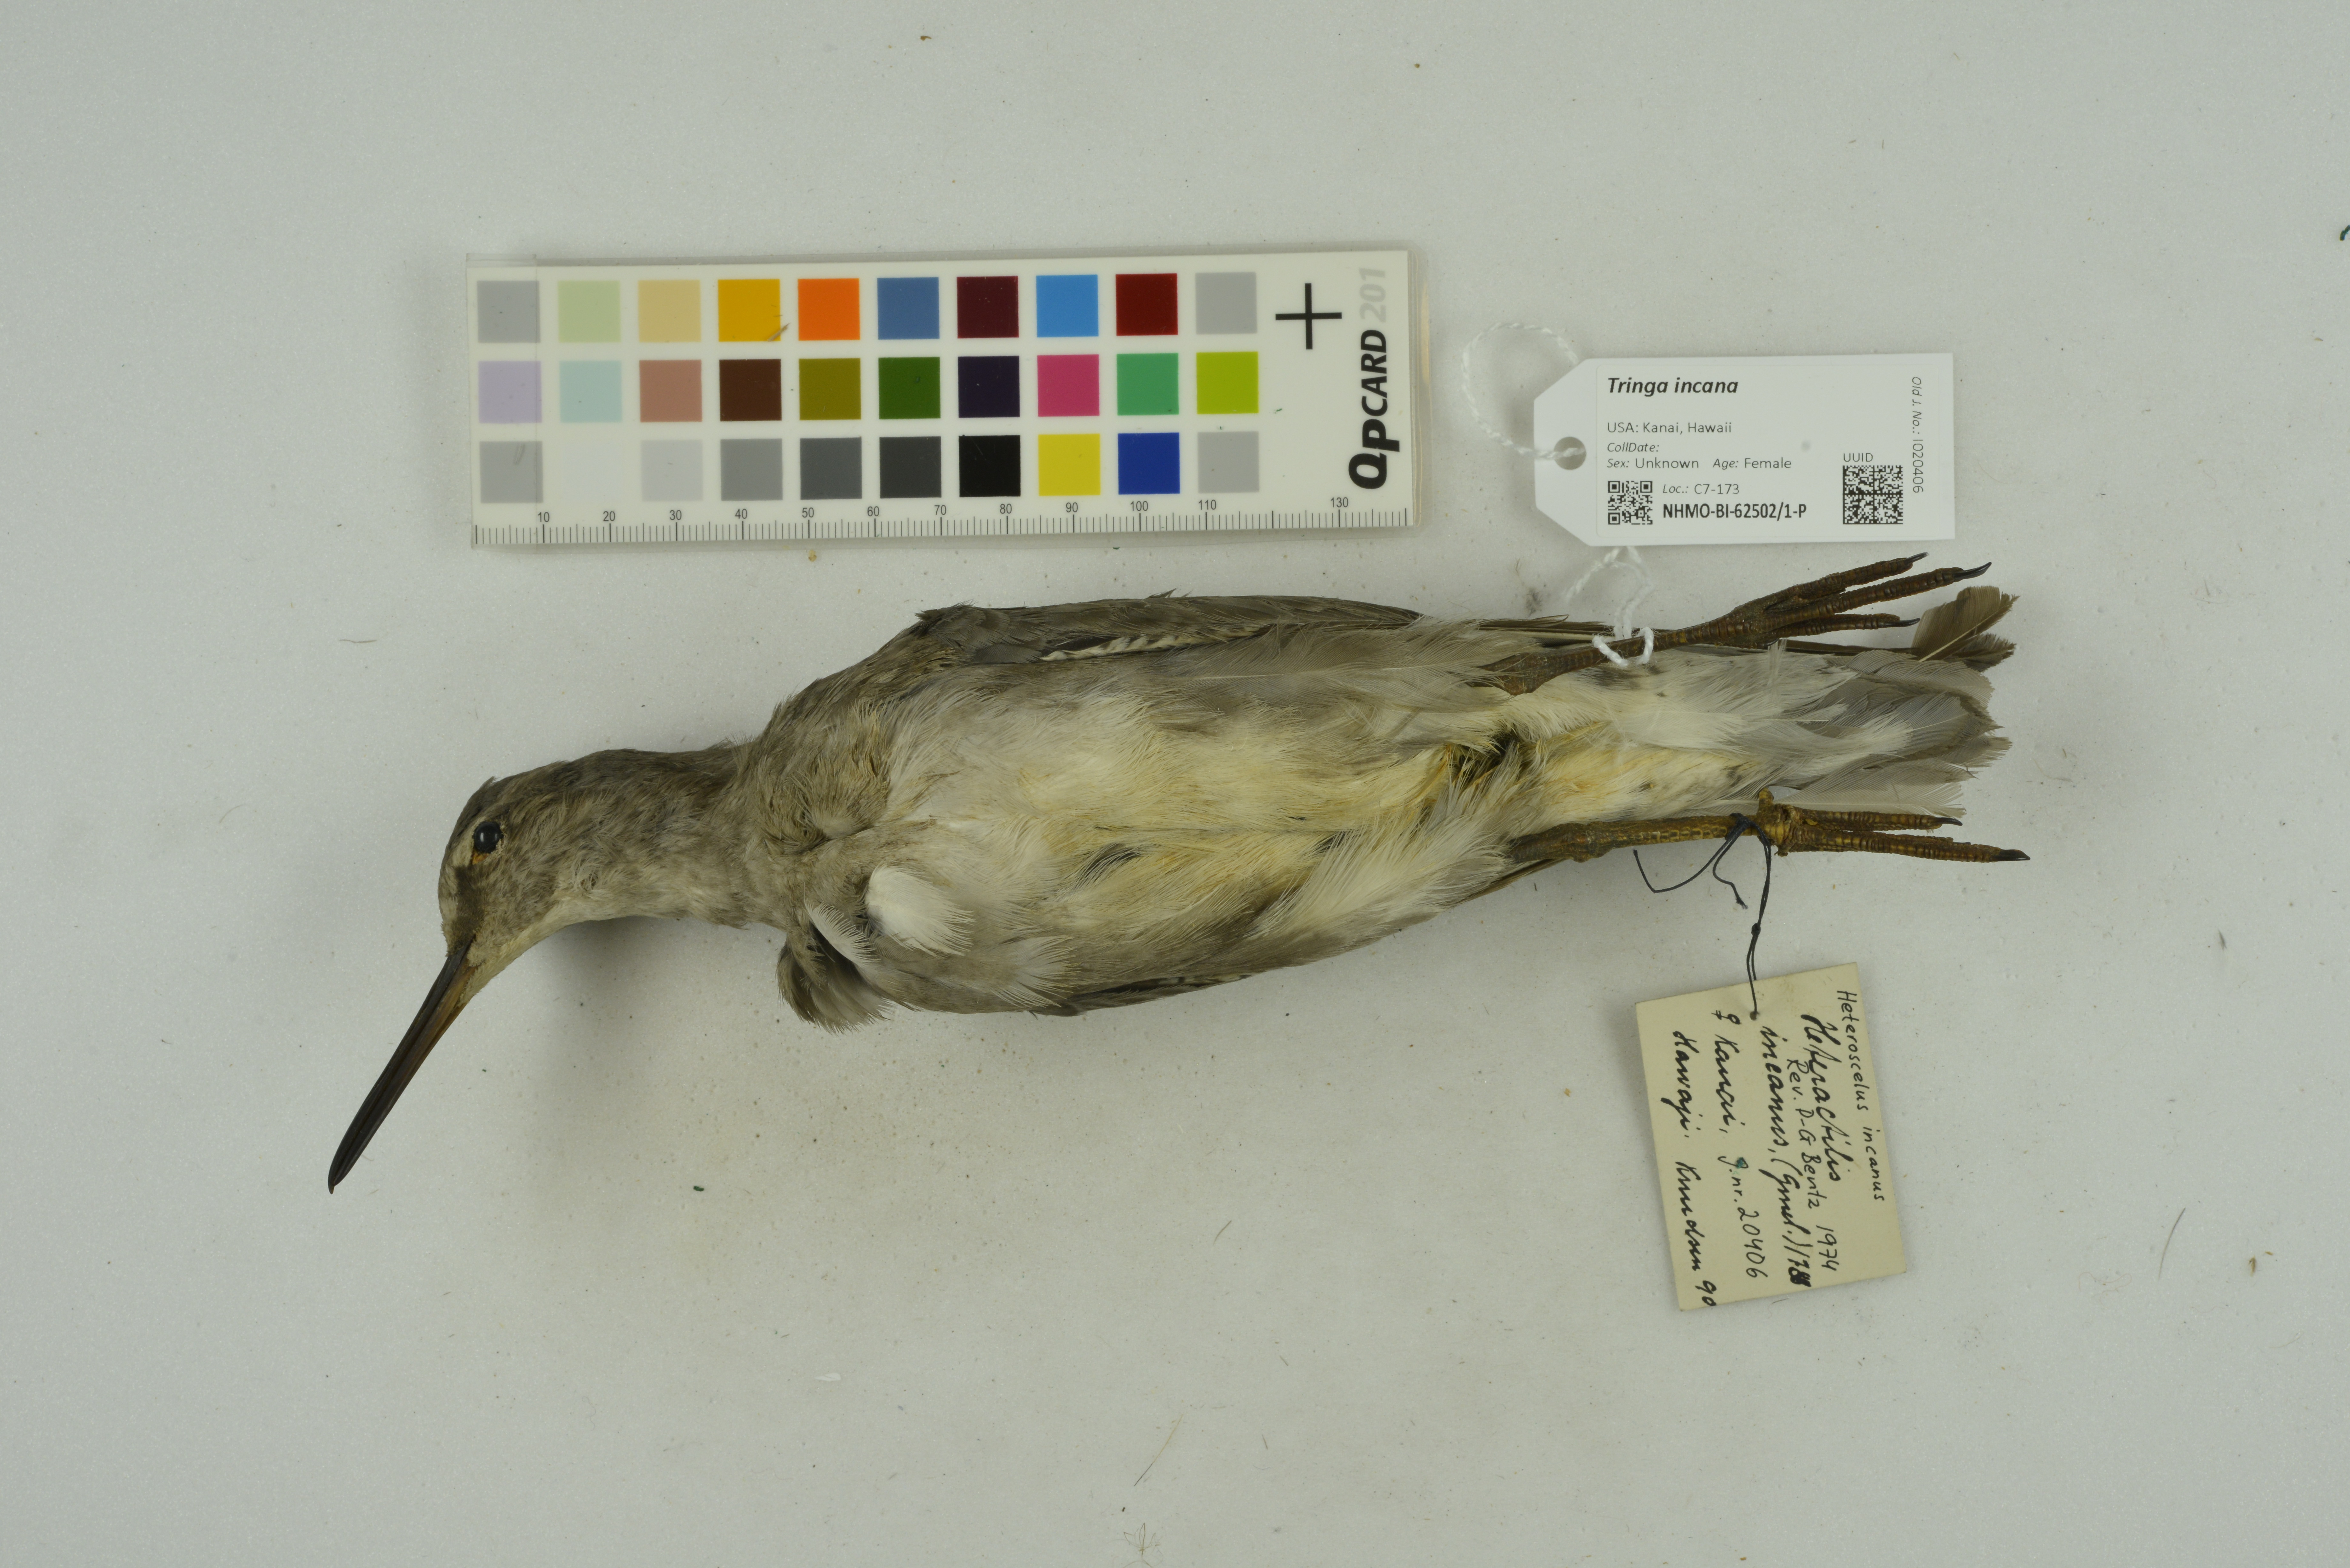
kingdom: Animalia
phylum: Chordata
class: Aves
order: Charadriiformes
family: Scolopacidae
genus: Tringa
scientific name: Tringa incana
